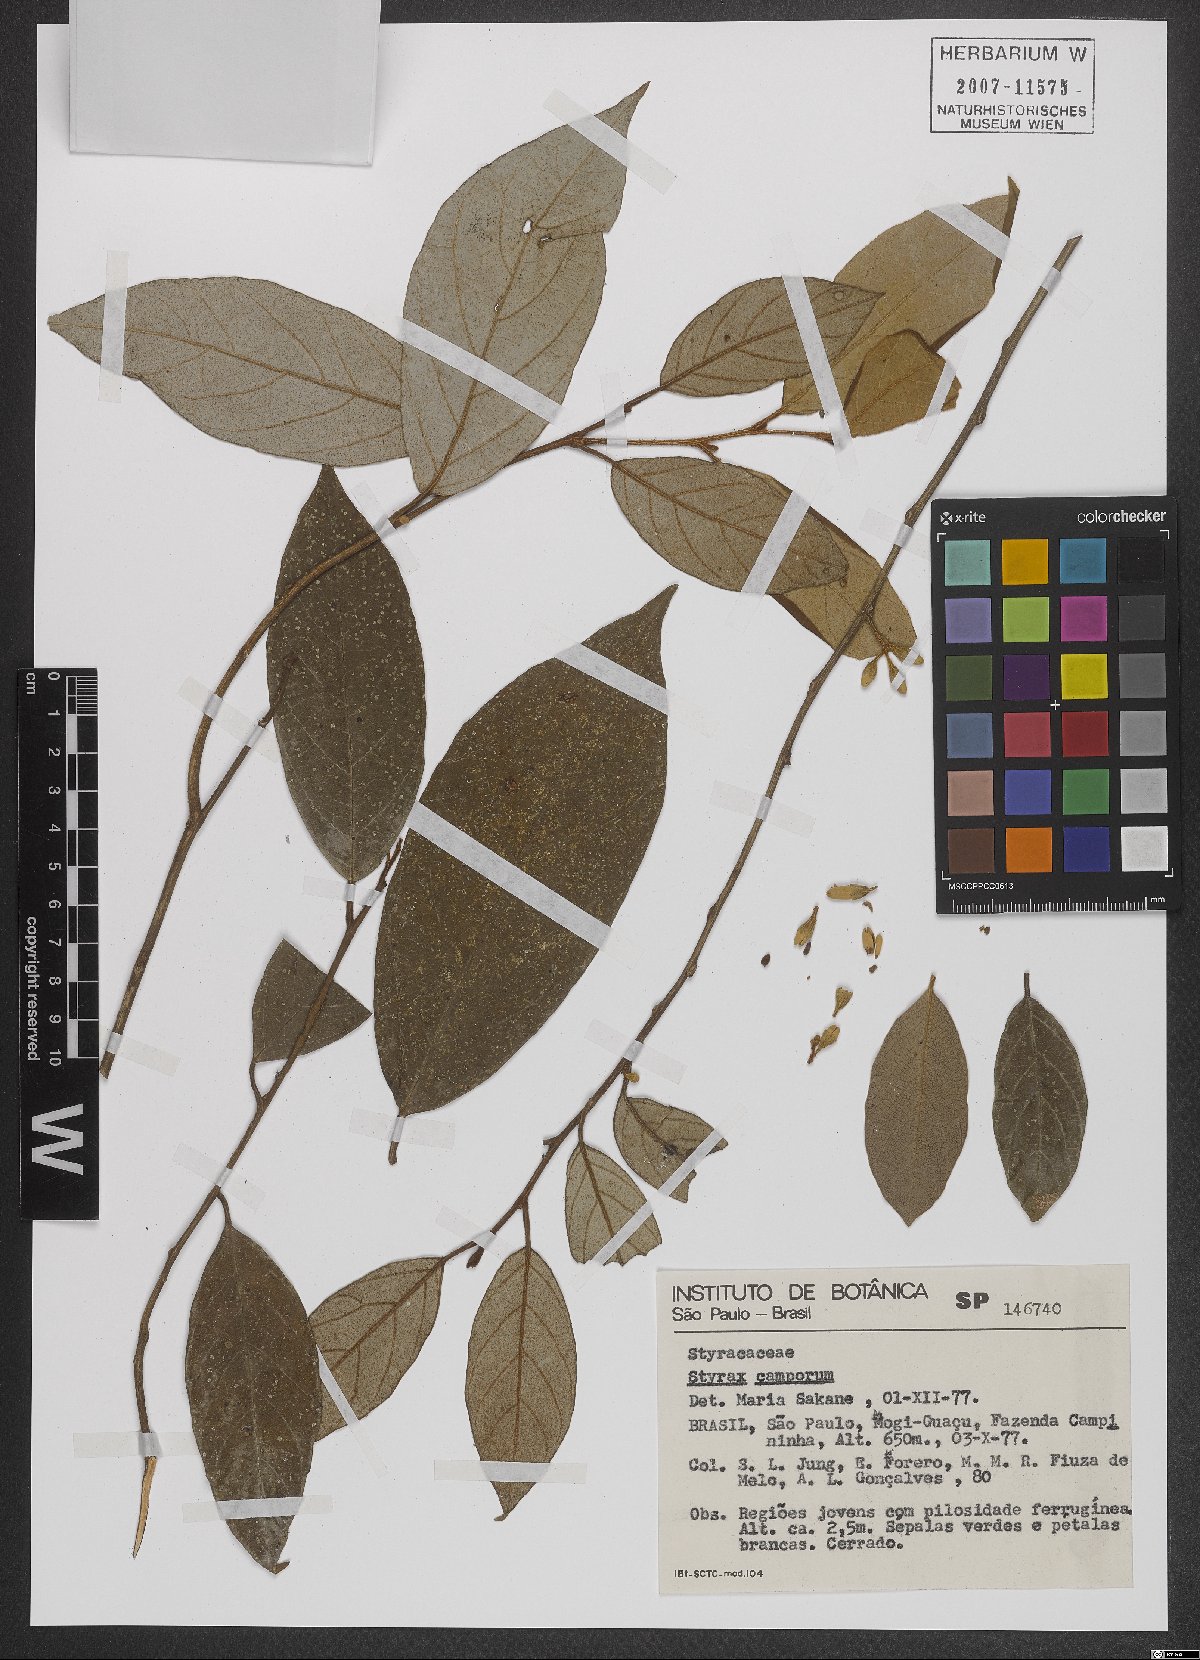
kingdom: Plantae
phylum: Tracheophyta
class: Magnoliopsida
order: Ericales
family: Styracaceae
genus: Styrax
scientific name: Styrax camporum
